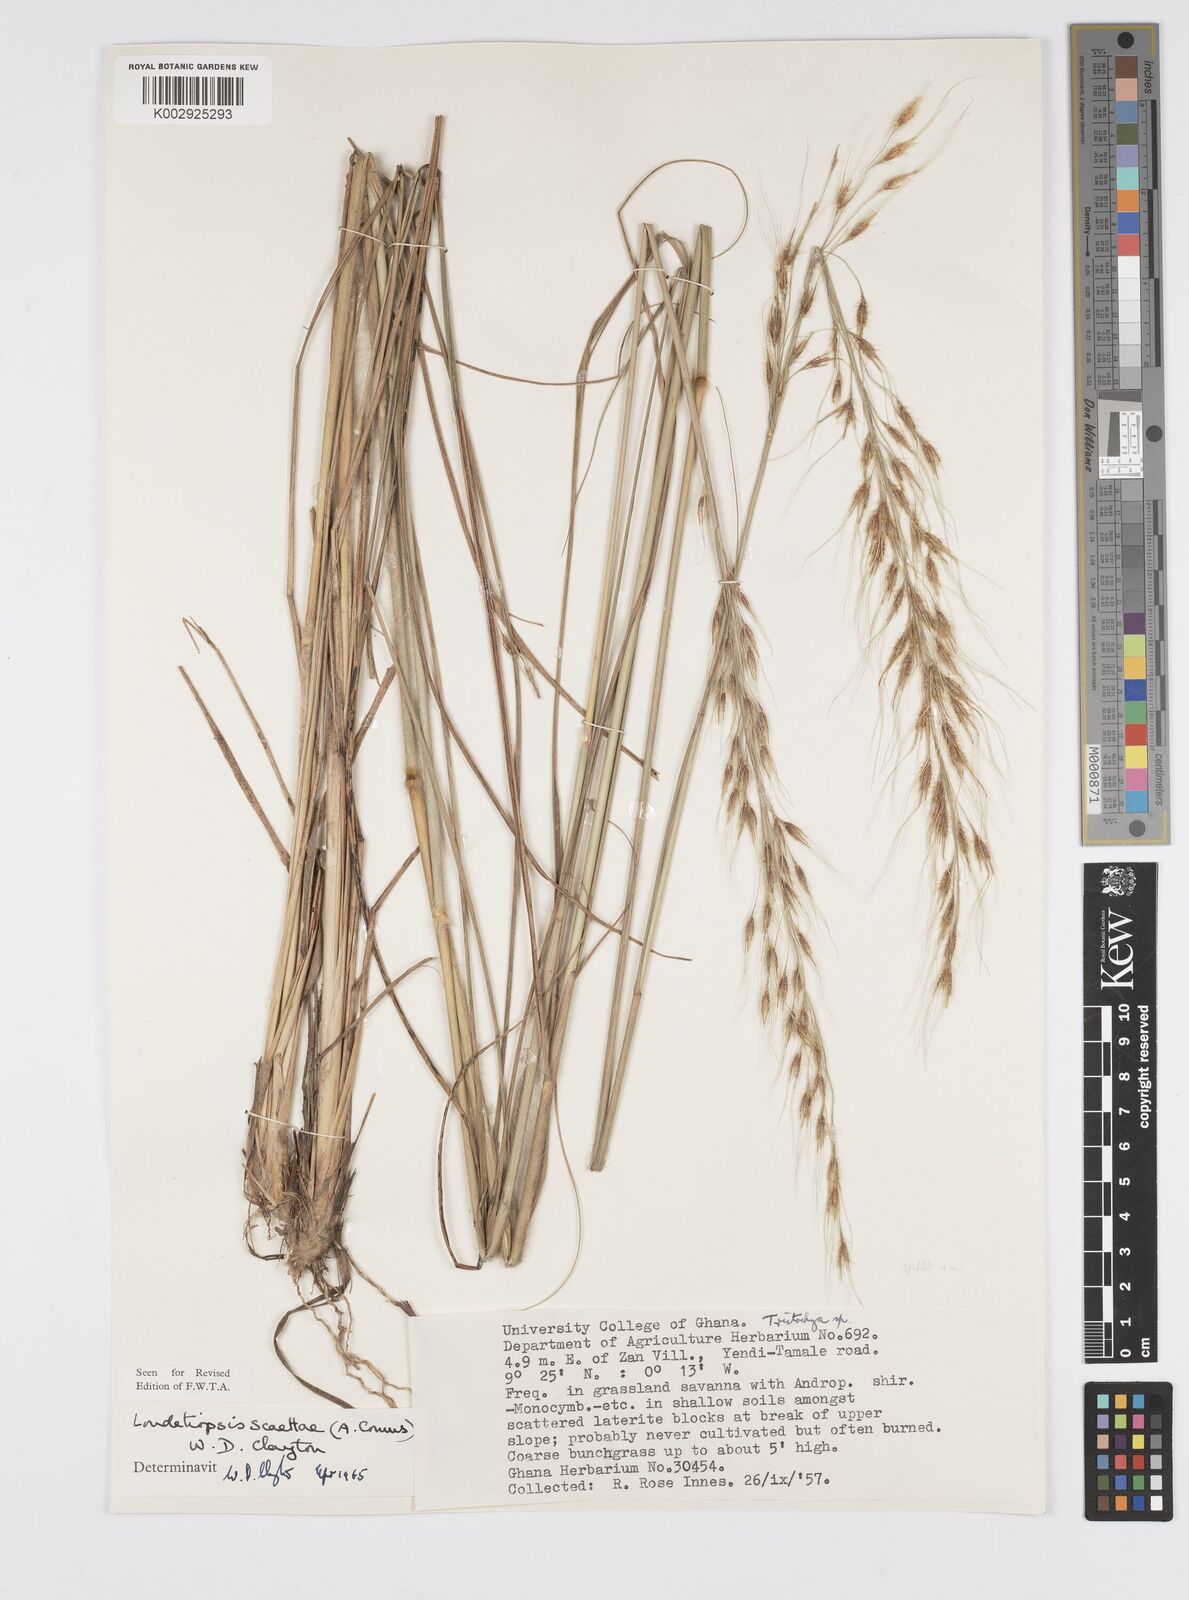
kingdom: Plantae
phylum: Tracheophyta
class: Liliopsida
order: Poales
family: Poaceae
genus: Loudetiopsis
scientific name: Loudetiopsis scaettae
